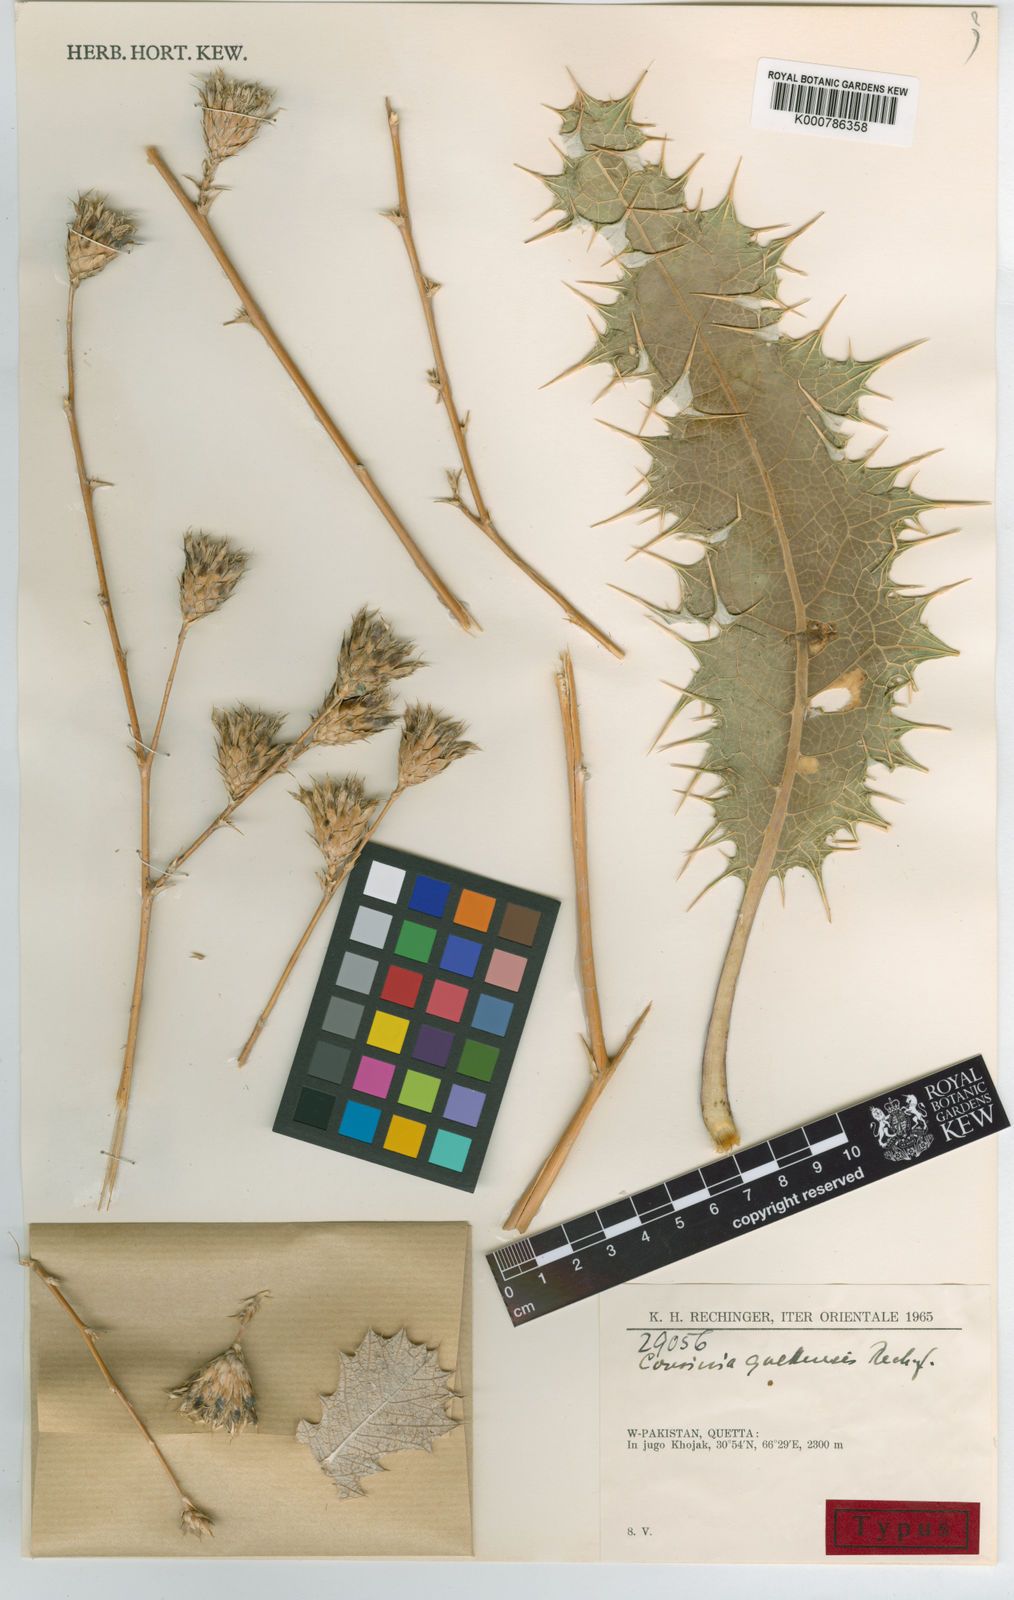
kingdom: Plantae
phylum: Tracheophyta
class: Magnoliopsida
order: Asterales
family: Asteraceae
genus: Cousinia
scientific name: Cousinia quettensis
